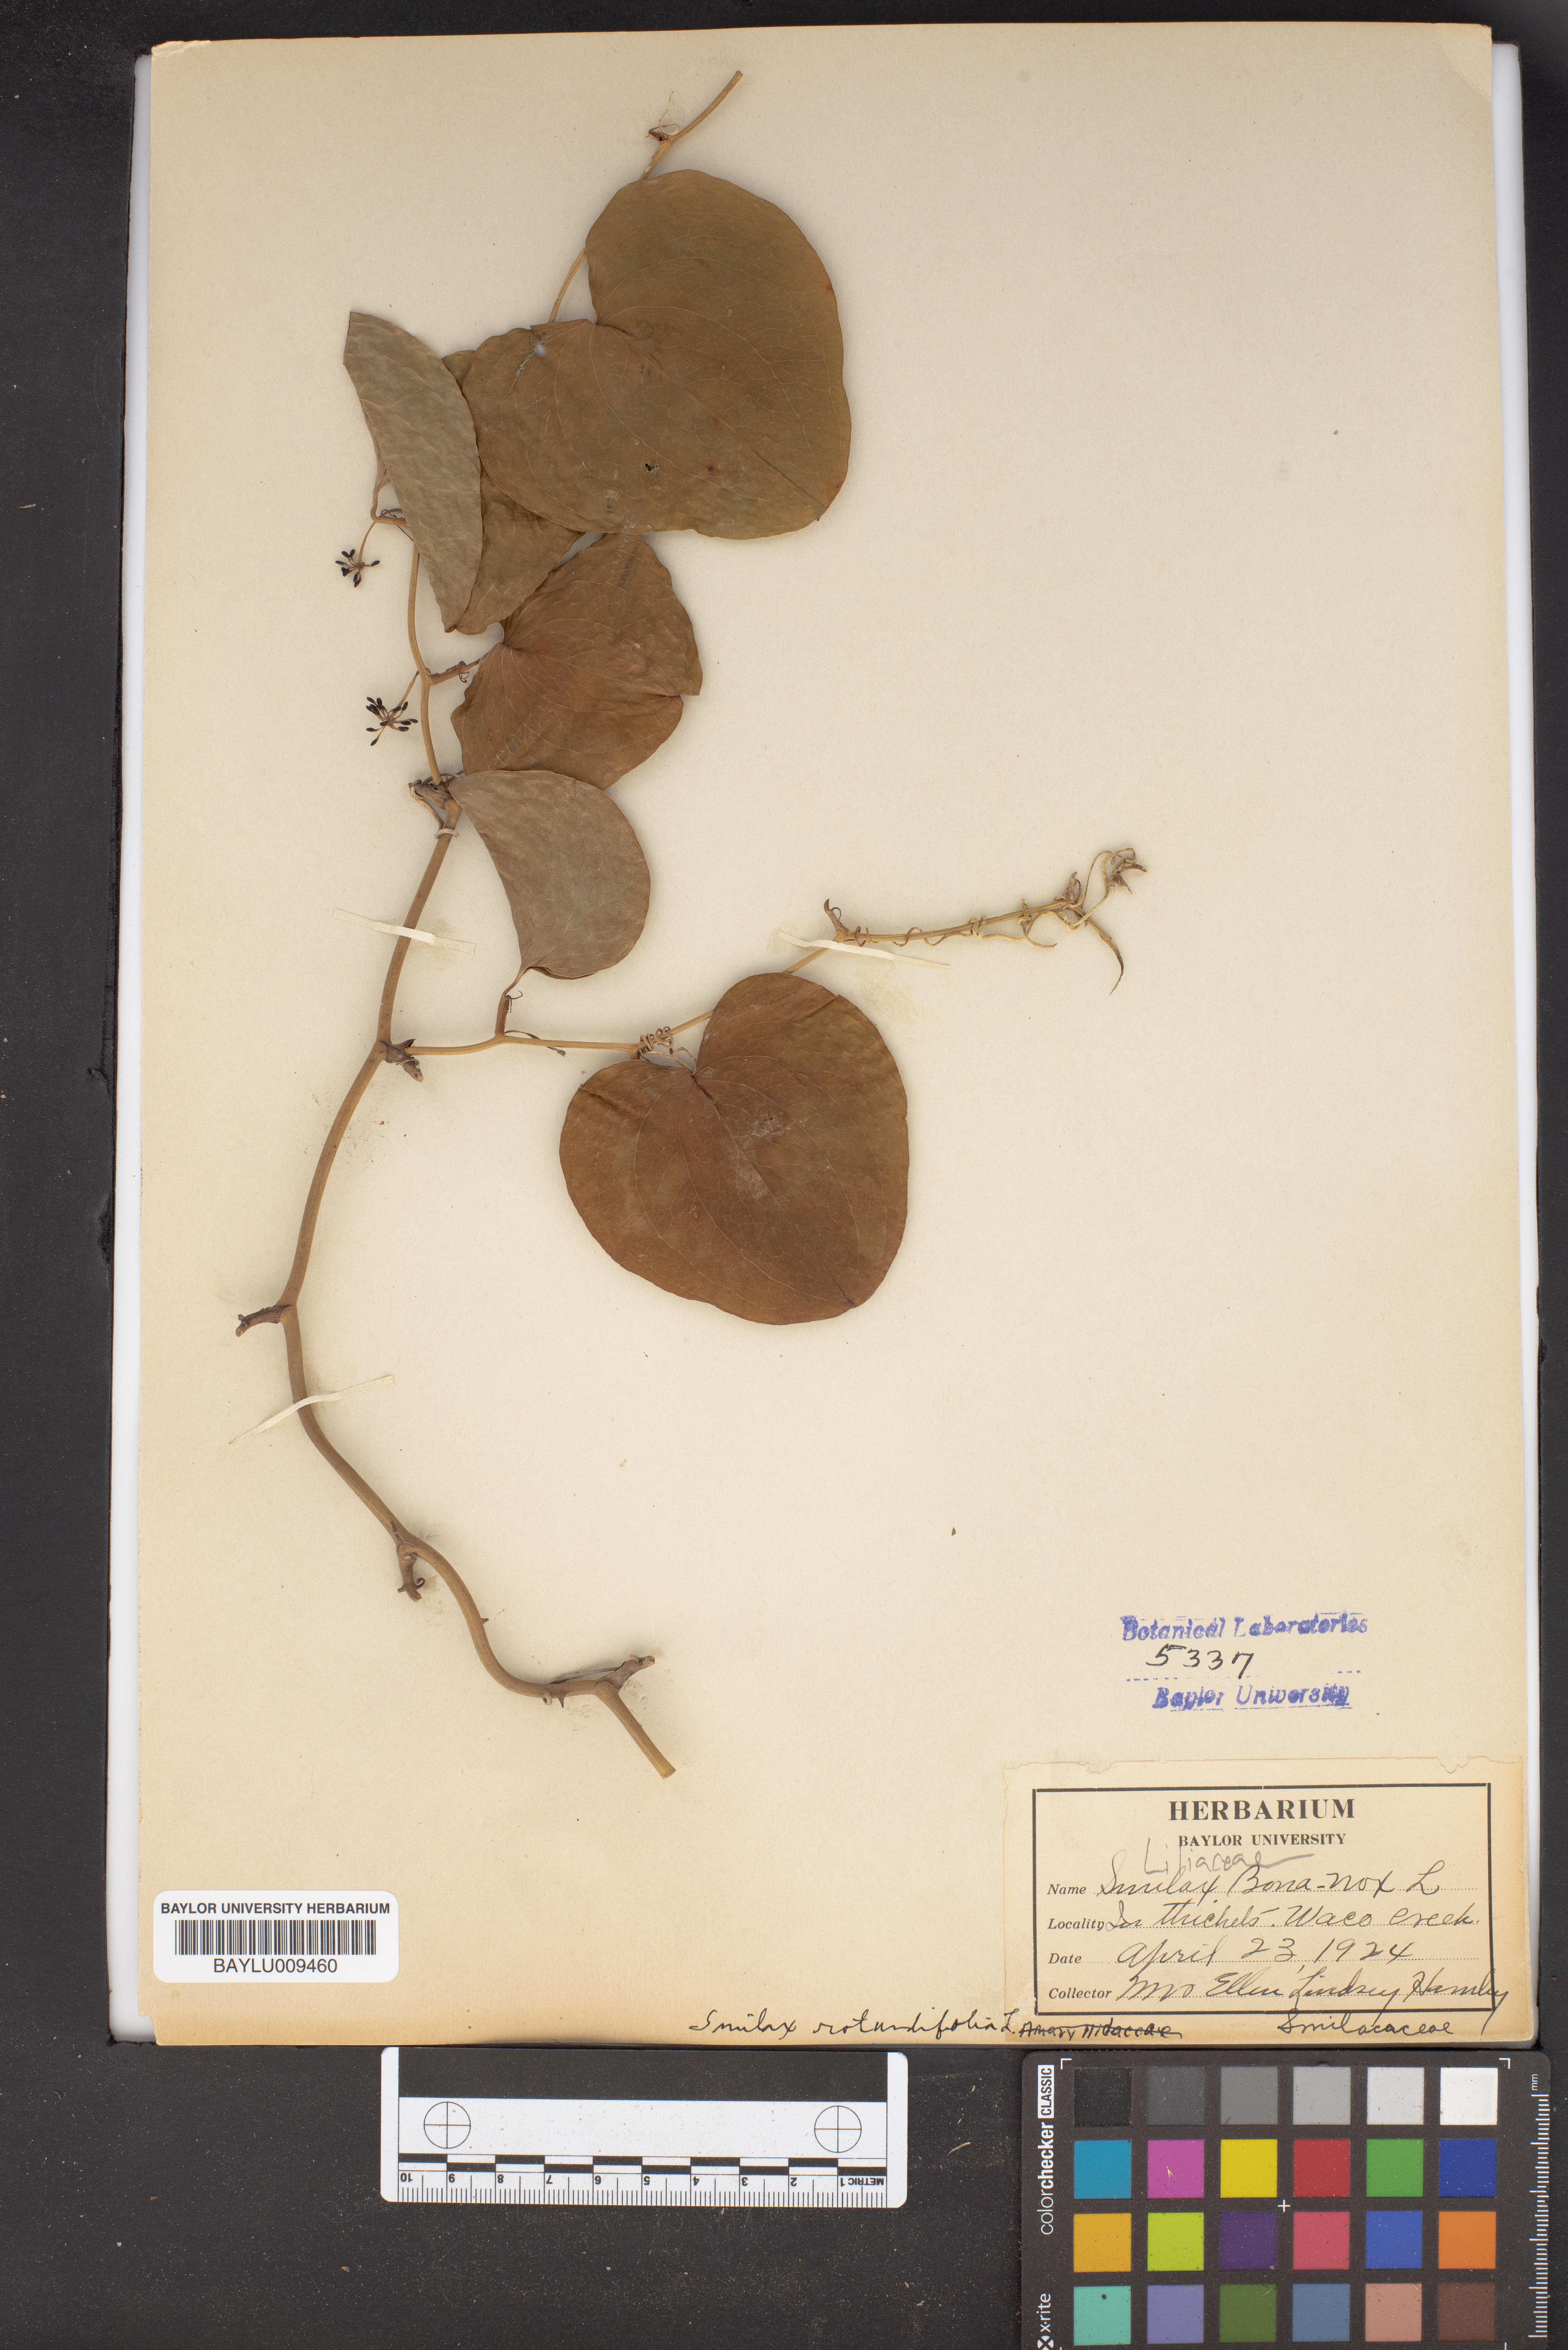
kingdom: Plantae
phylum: Tracheophyta
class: Liliopsida
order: Liliales
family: Smilacaceae
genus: Smilax
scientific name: Smilax bona-nox
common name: Catbrier
